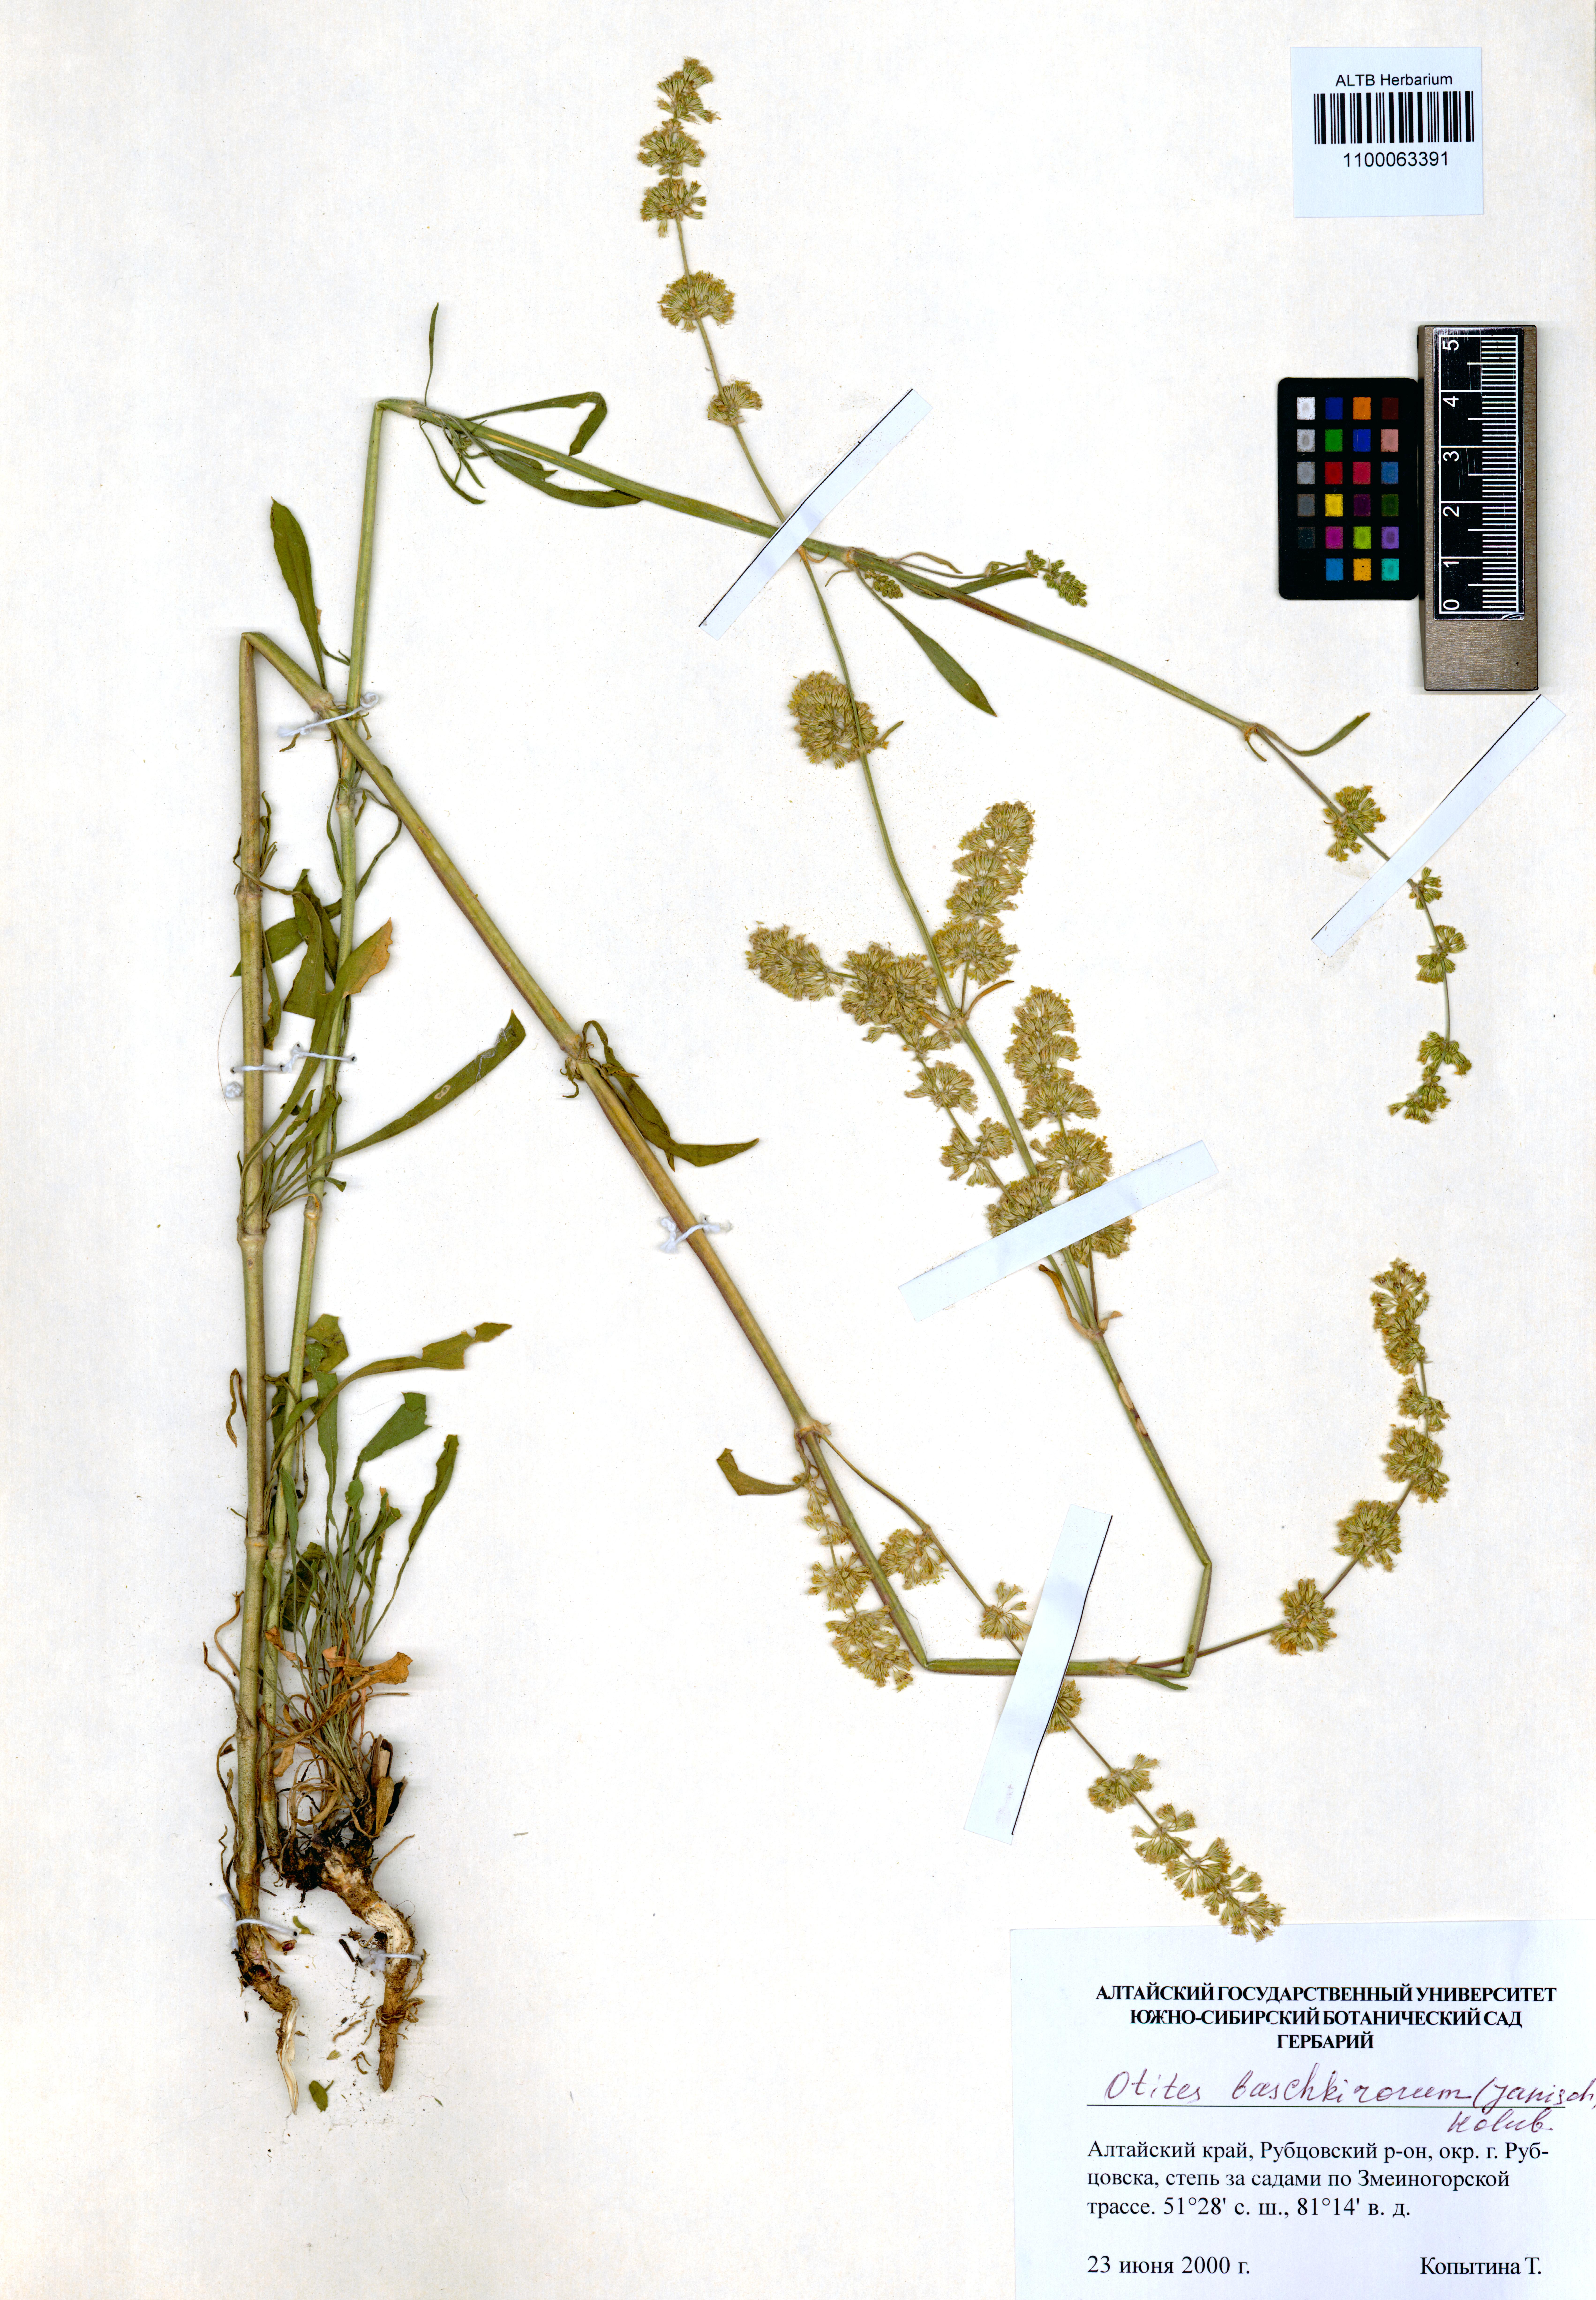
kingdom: Plantae
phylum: Tracheophyta
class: Magnoliopsida
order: Caryophyllales
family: Caryophyllaceae
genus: Silene
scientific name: Silene baschkirorum
